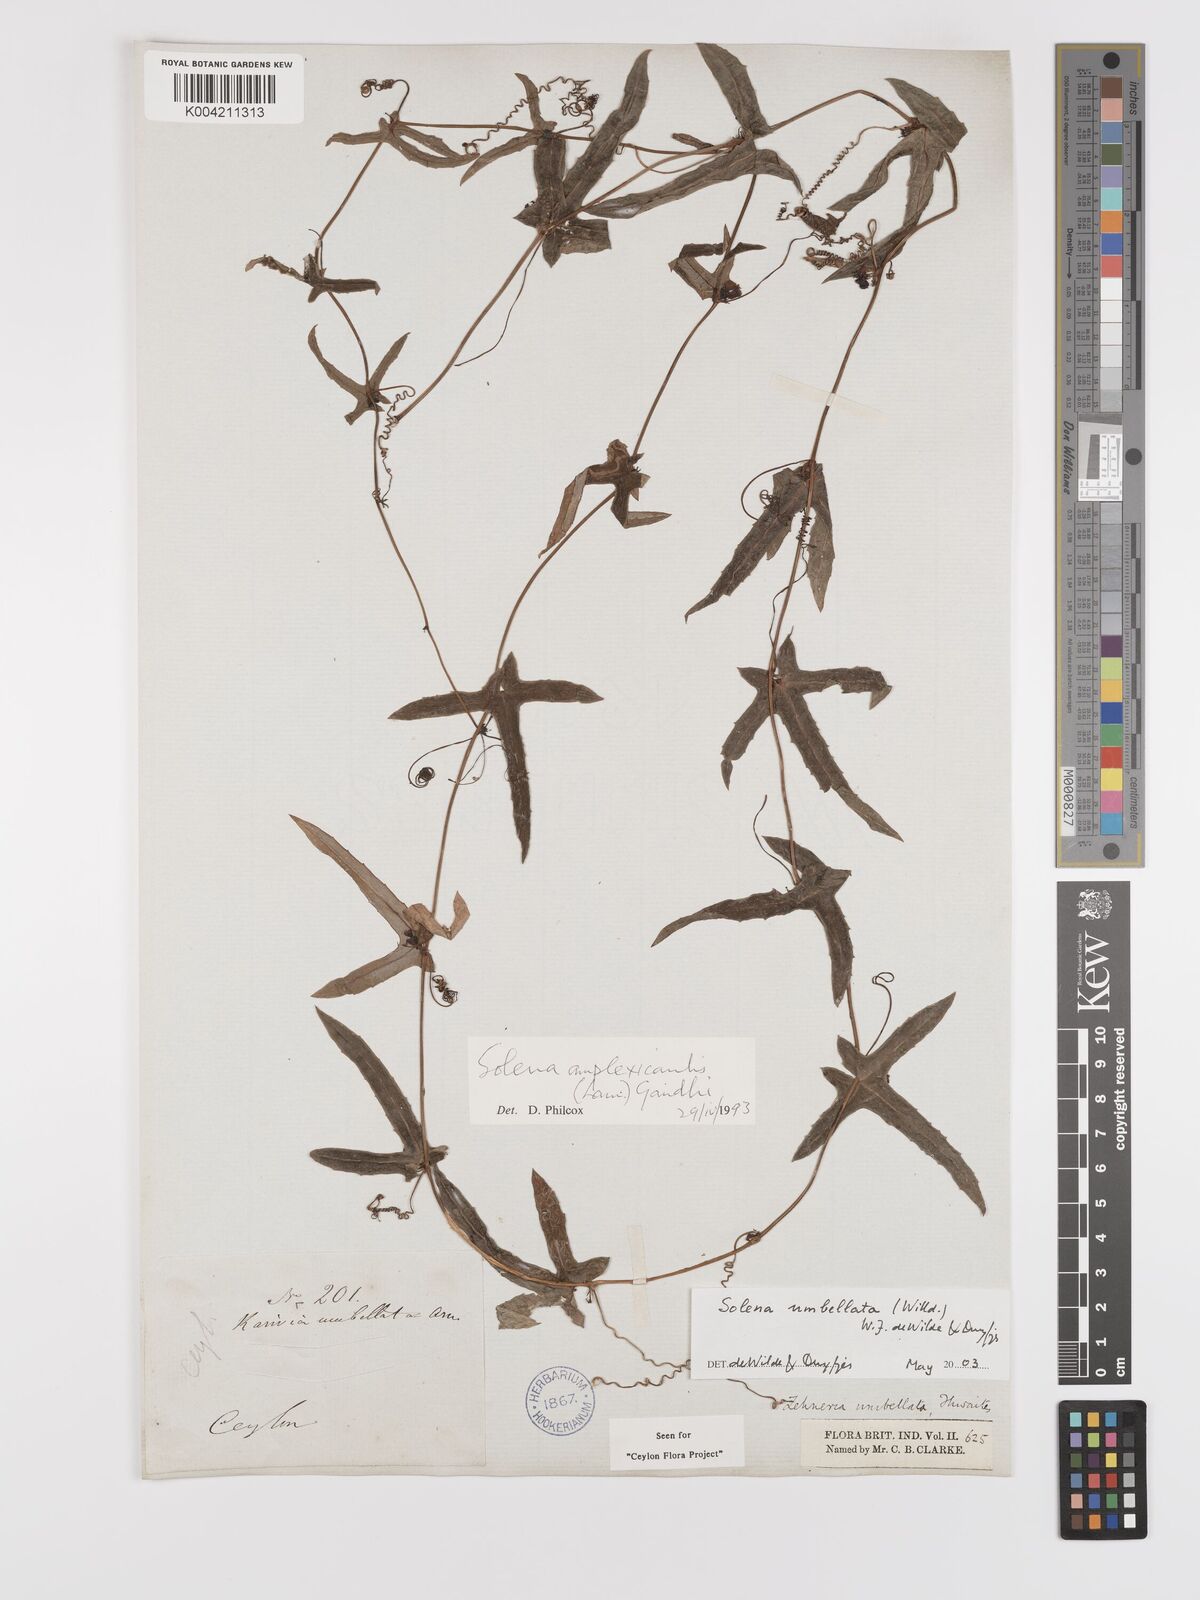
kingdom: Plantae
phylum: Tracheophyta
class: Magnoliopsida
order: Cucurbitales
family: Cucurbitaceae
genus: Solena
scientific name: Solena umbellata
